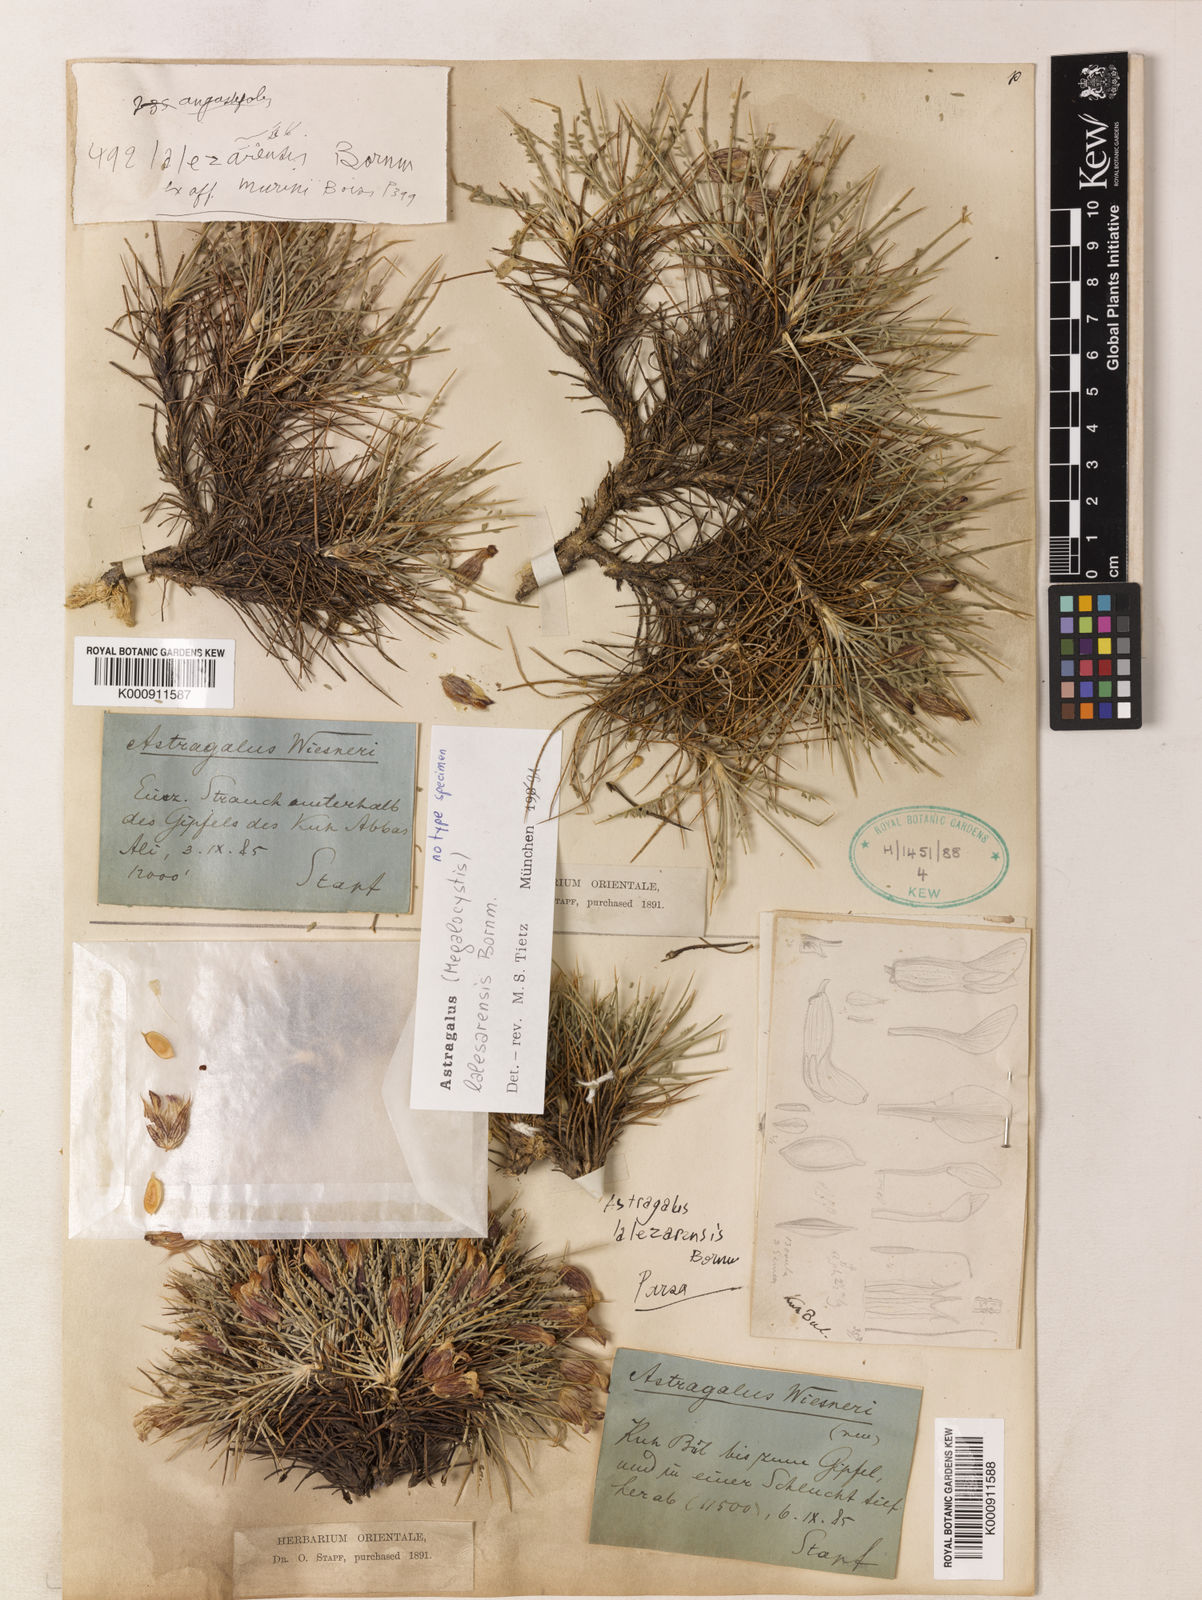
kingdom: Plantae
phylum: Tracheophyta
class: Magnoliopsida
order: Fabales
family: Fabaceae
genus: Astragalus
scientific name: Astragalus lalesarensis
